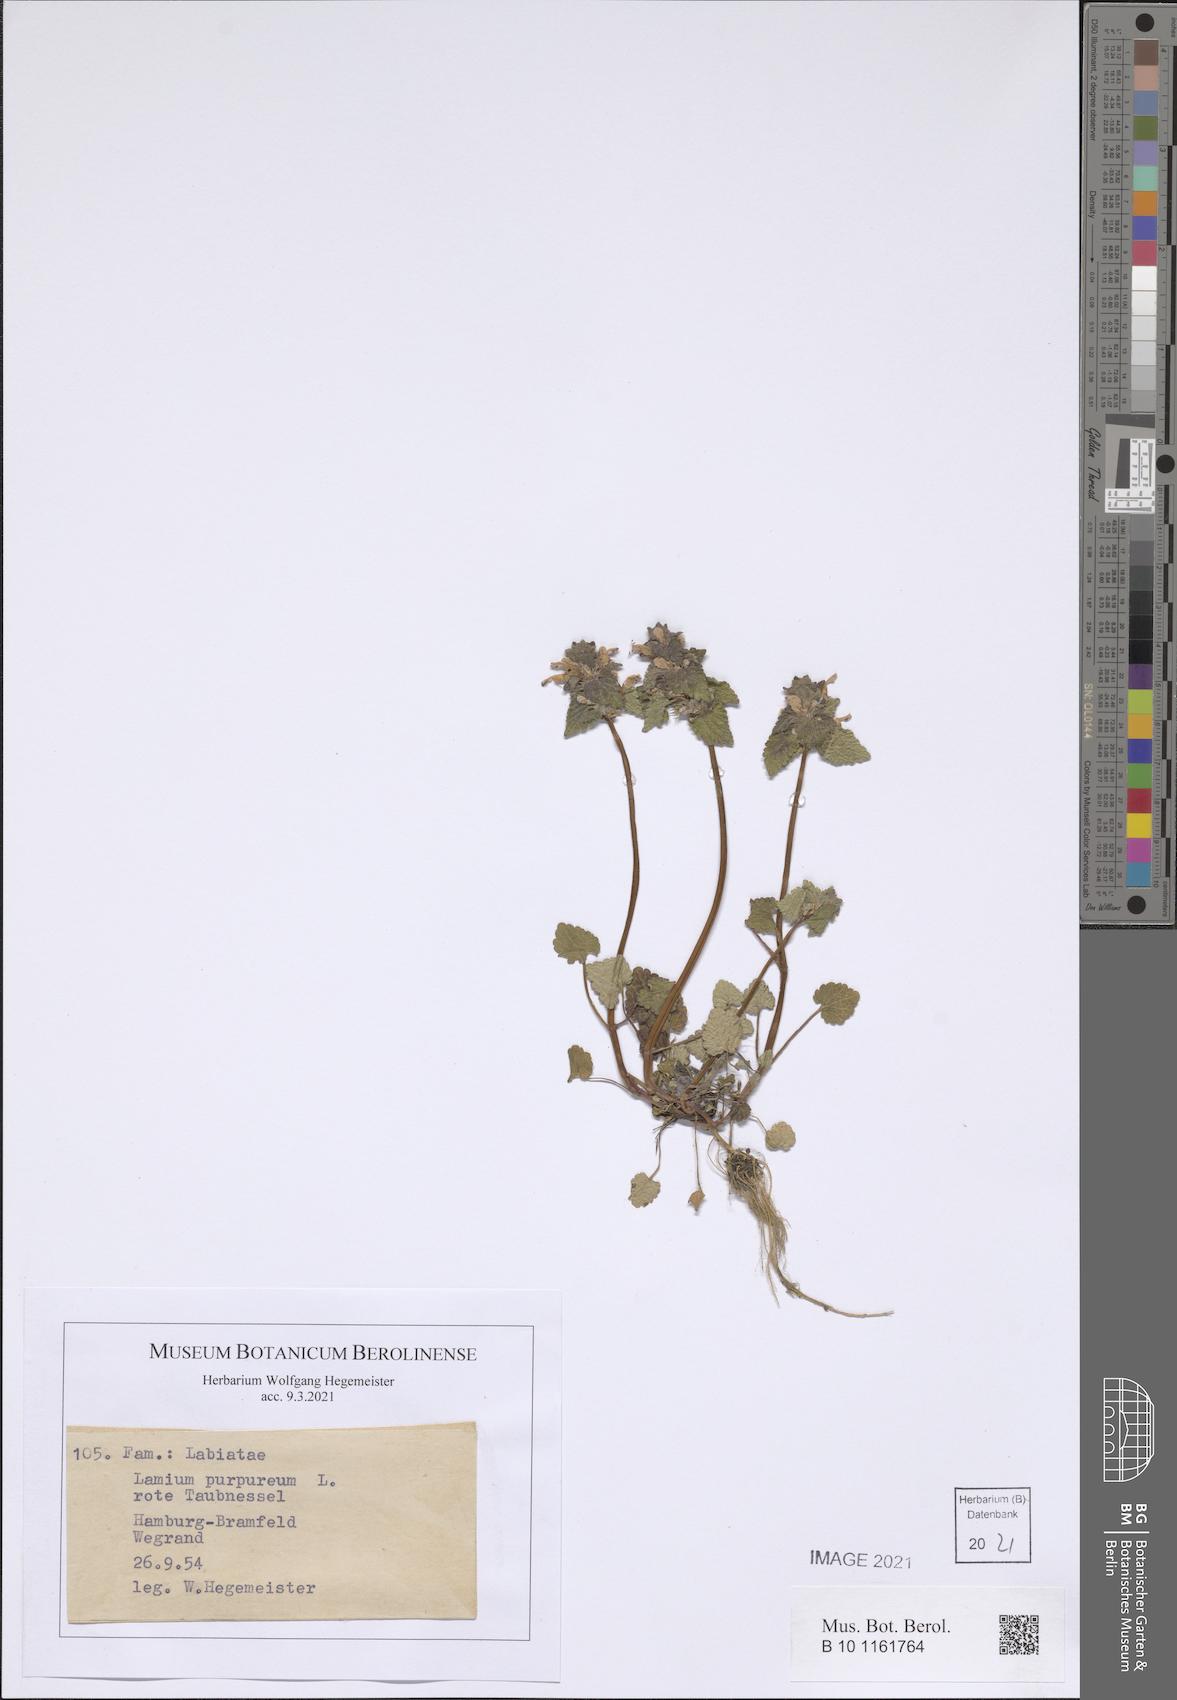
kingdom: Plantae
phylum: Tracheophyta
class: Magnoliopsida
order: Lamiales
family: Lamiaceae
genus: Lamium
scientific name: Lamium purpureum
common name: Red dead-nettle
